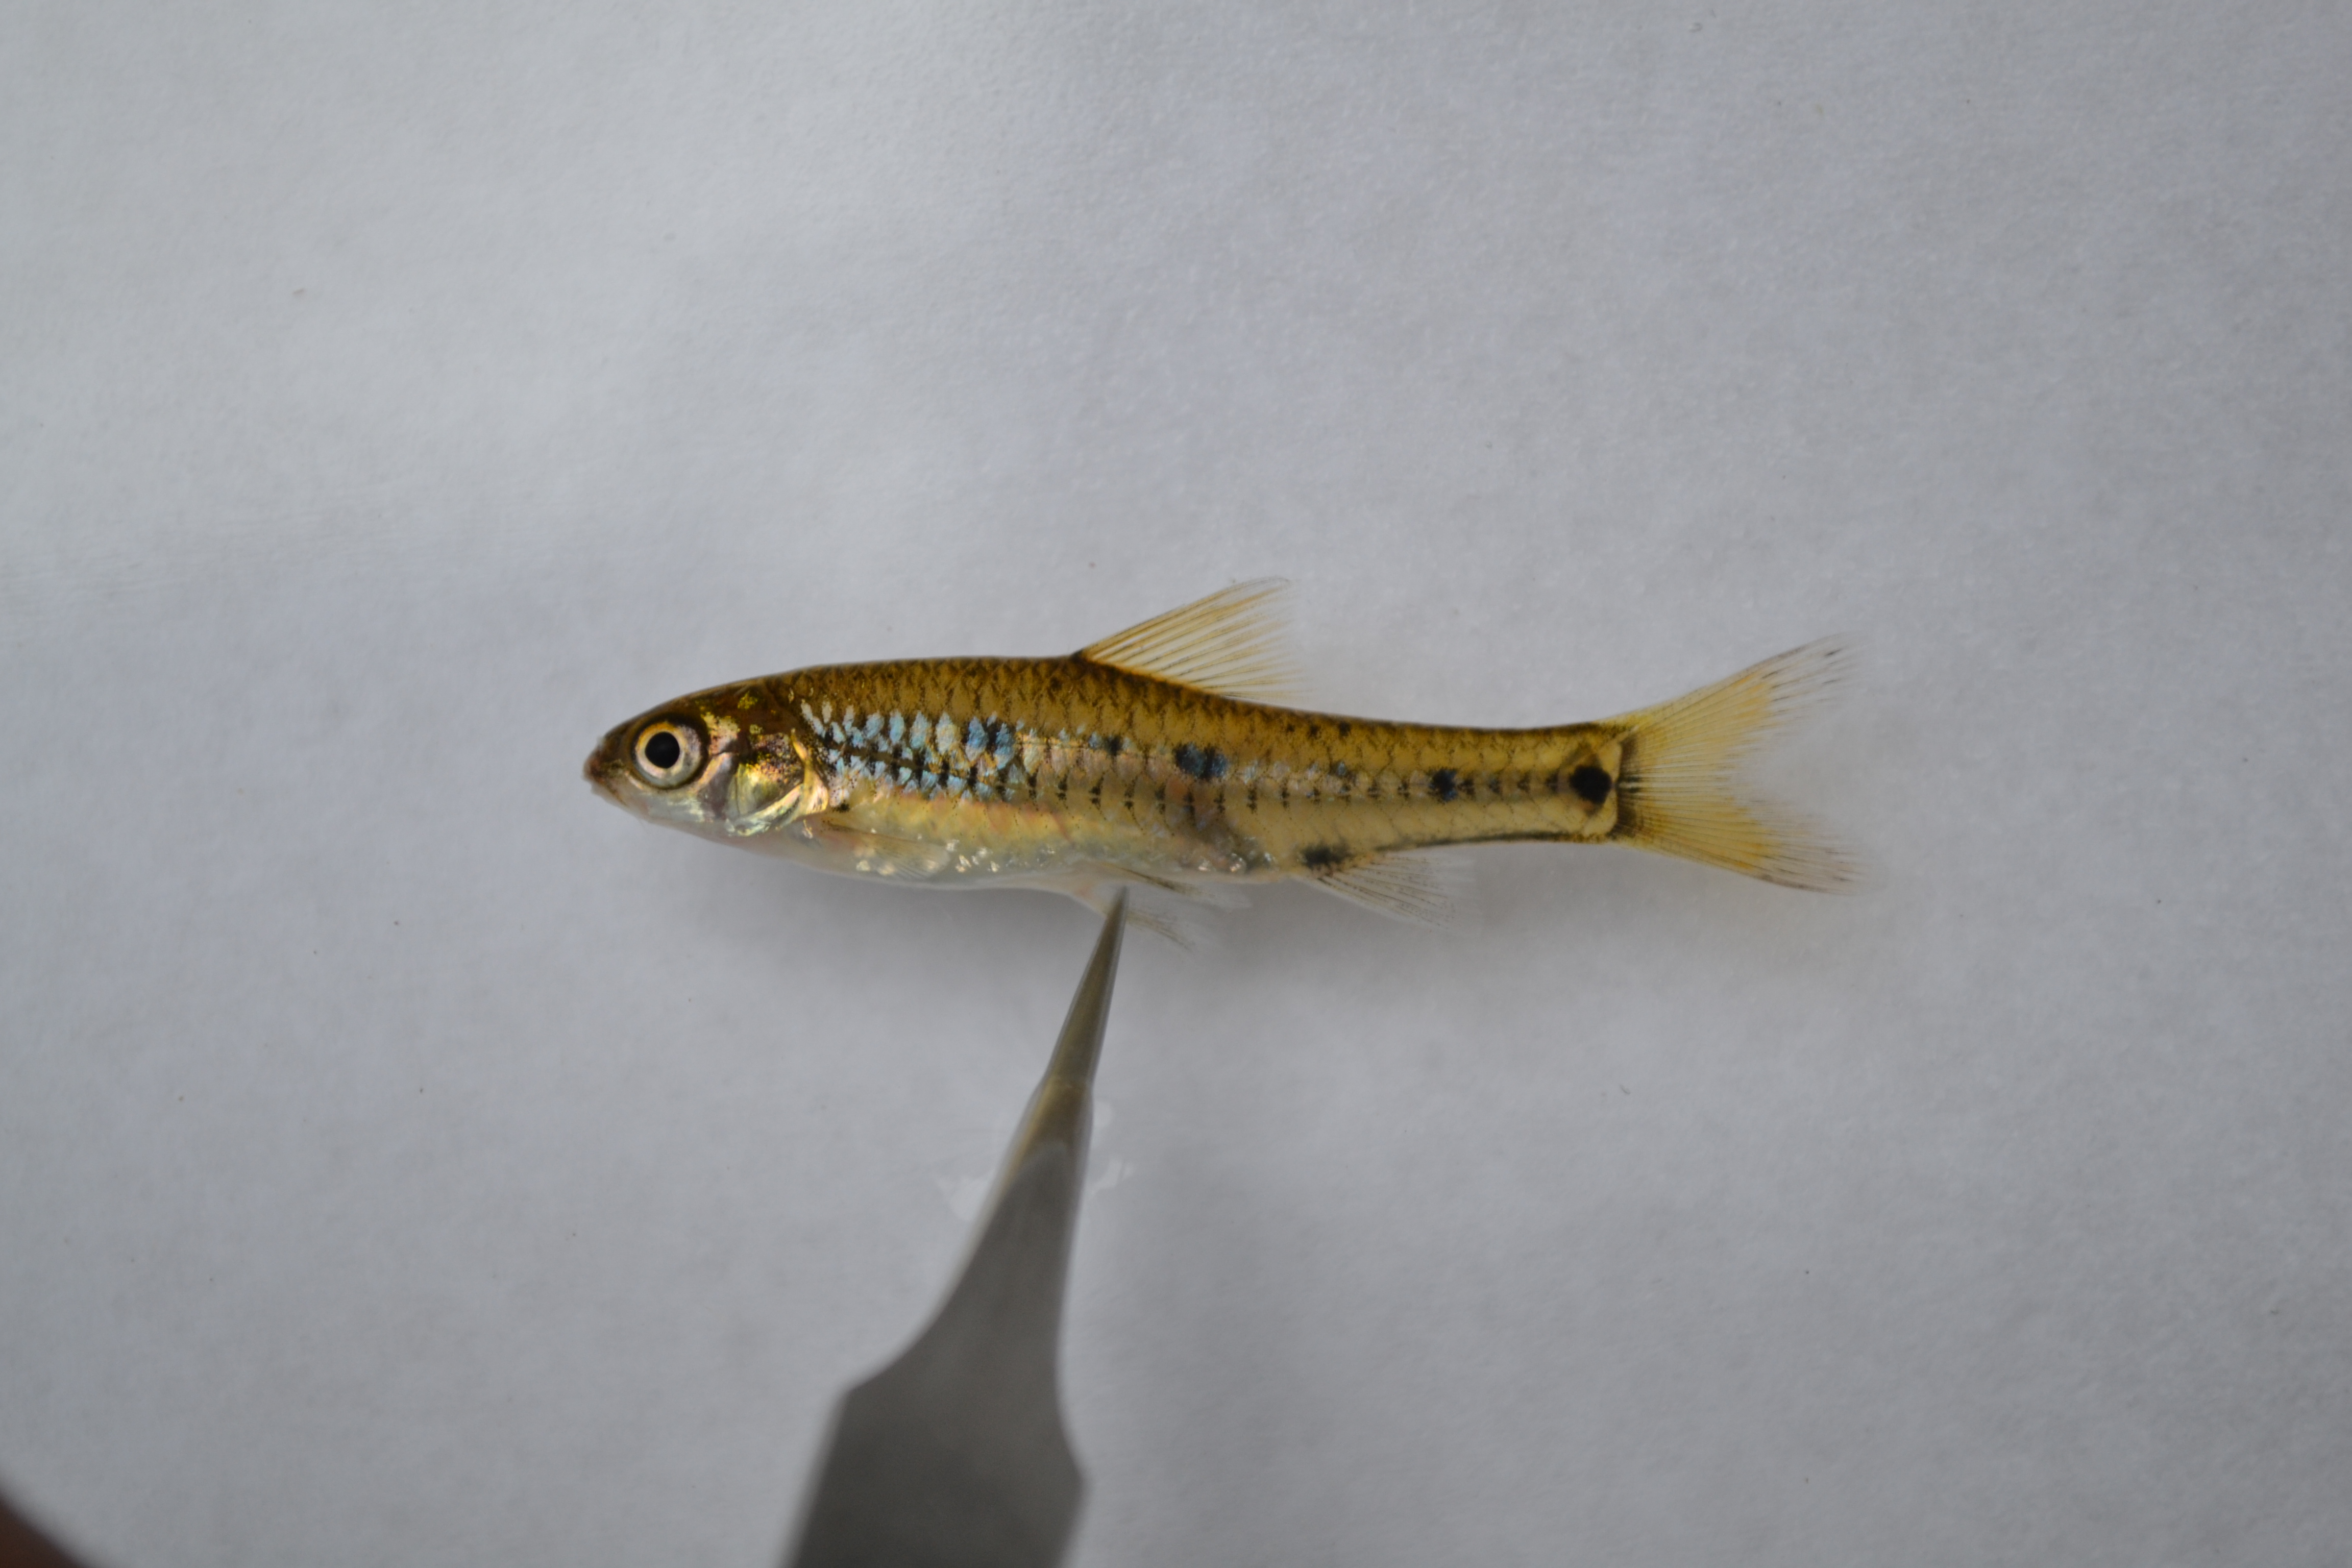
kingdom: Animalia
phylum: Chordata
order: Cypriniformes
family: Cyprinidae
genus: Enteromius
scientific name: Enteromius lineomaculatus
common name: Line-spotted barb
